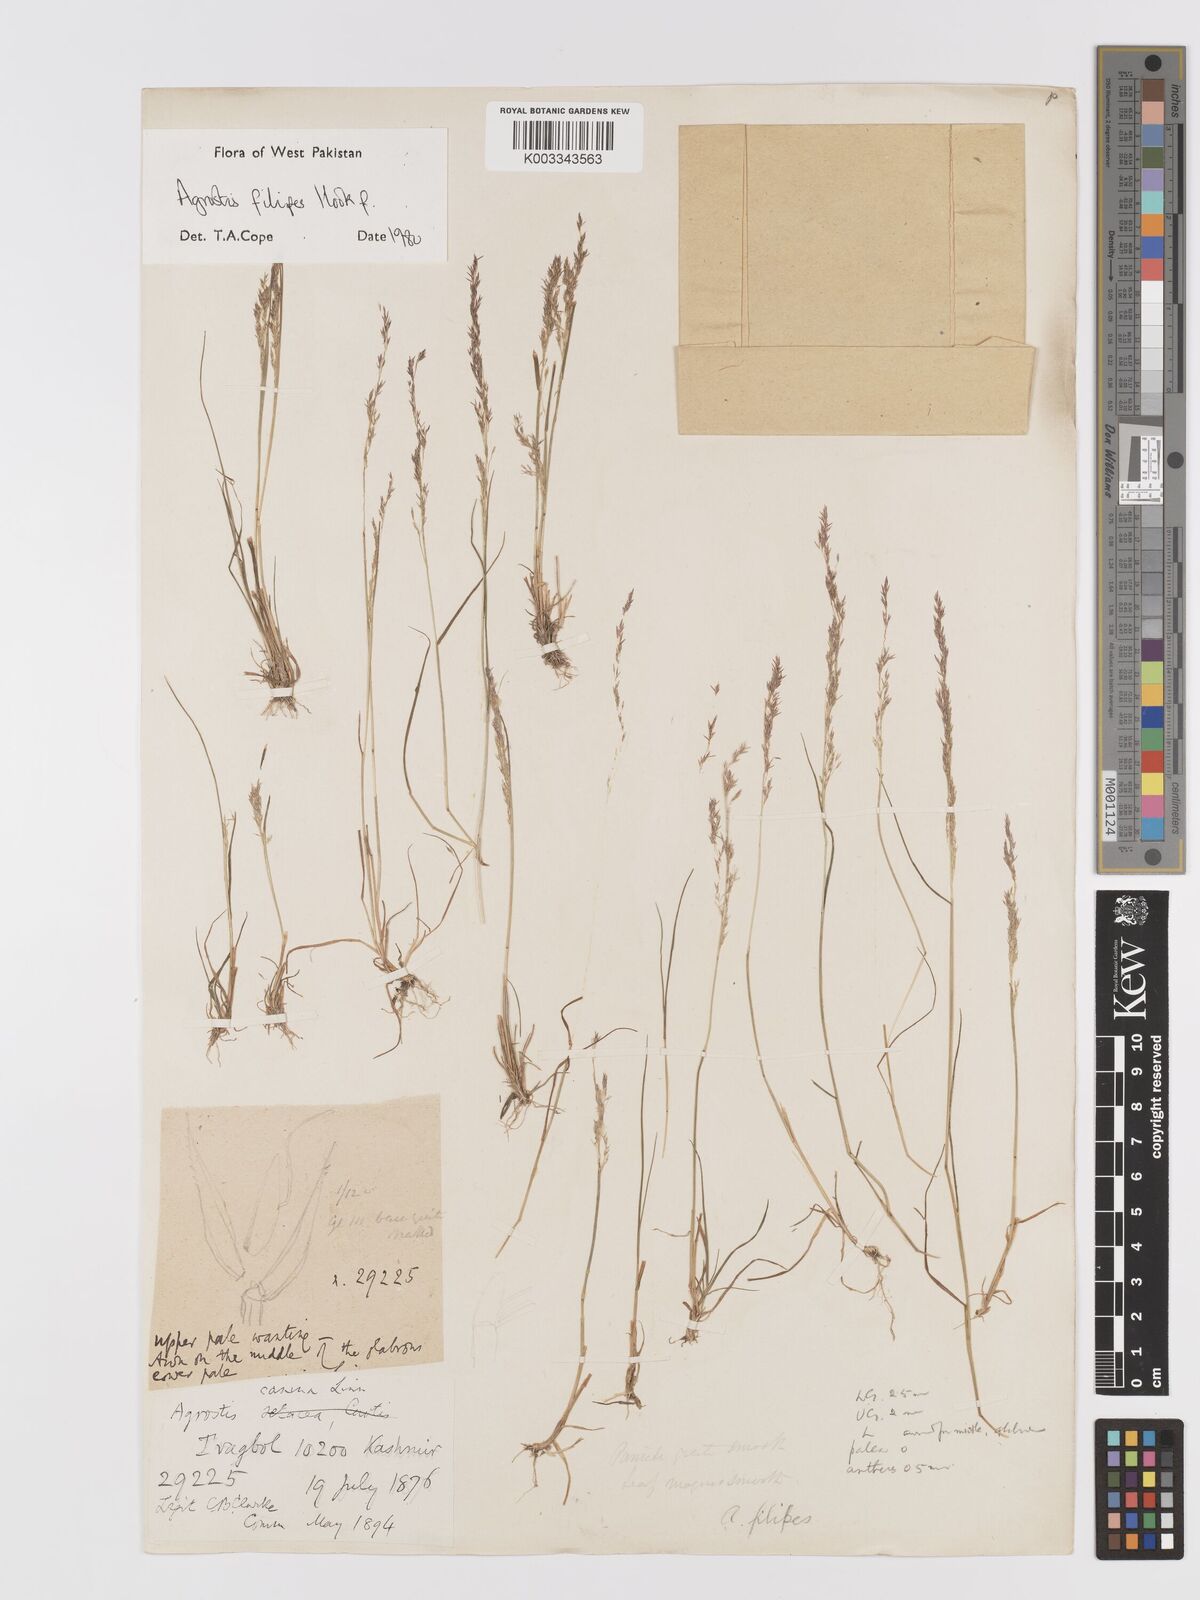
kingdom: Plantae
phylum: Tracheophyta
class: Liliopsida
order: Poales
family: Poaceae
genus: Agrostis
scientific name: Agrostis filipes
